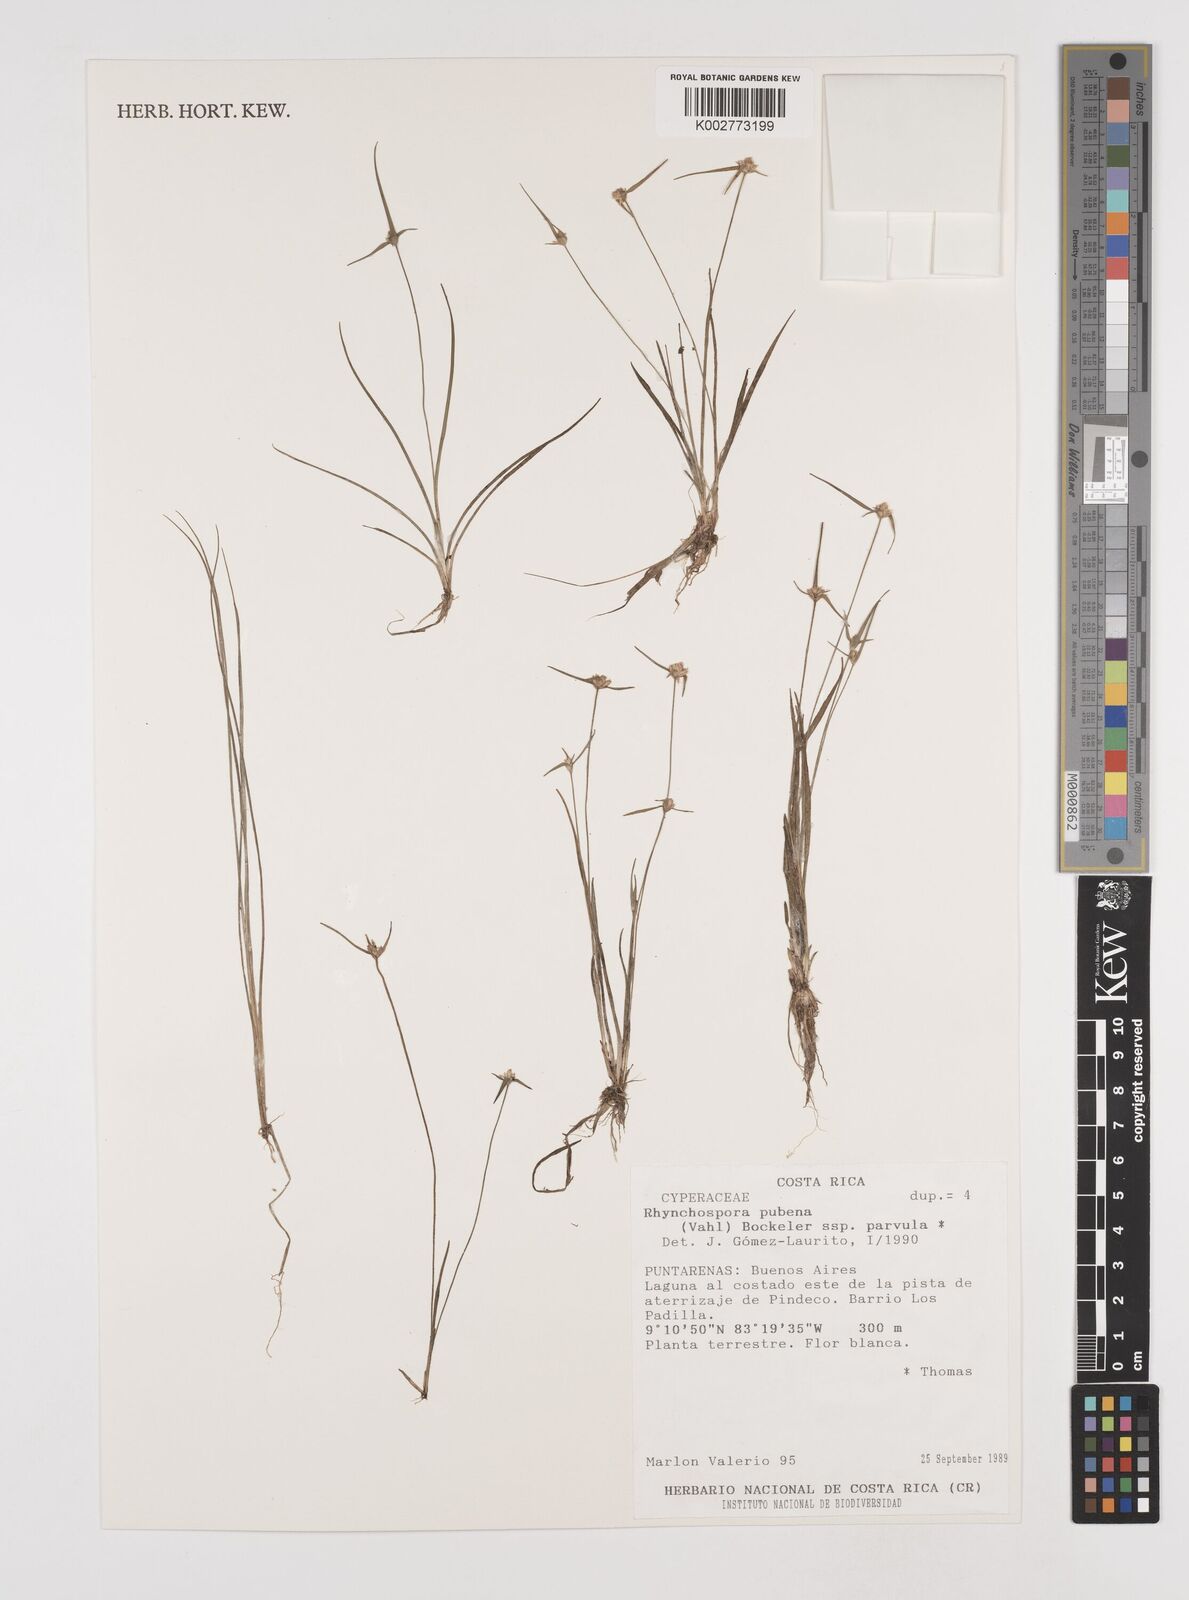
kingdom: Plantae
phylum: Tracheophyta
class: Liliopsida
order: Poales
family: Cyperaceae
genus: Rhynchospora
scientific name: Rhynchospora pubera
